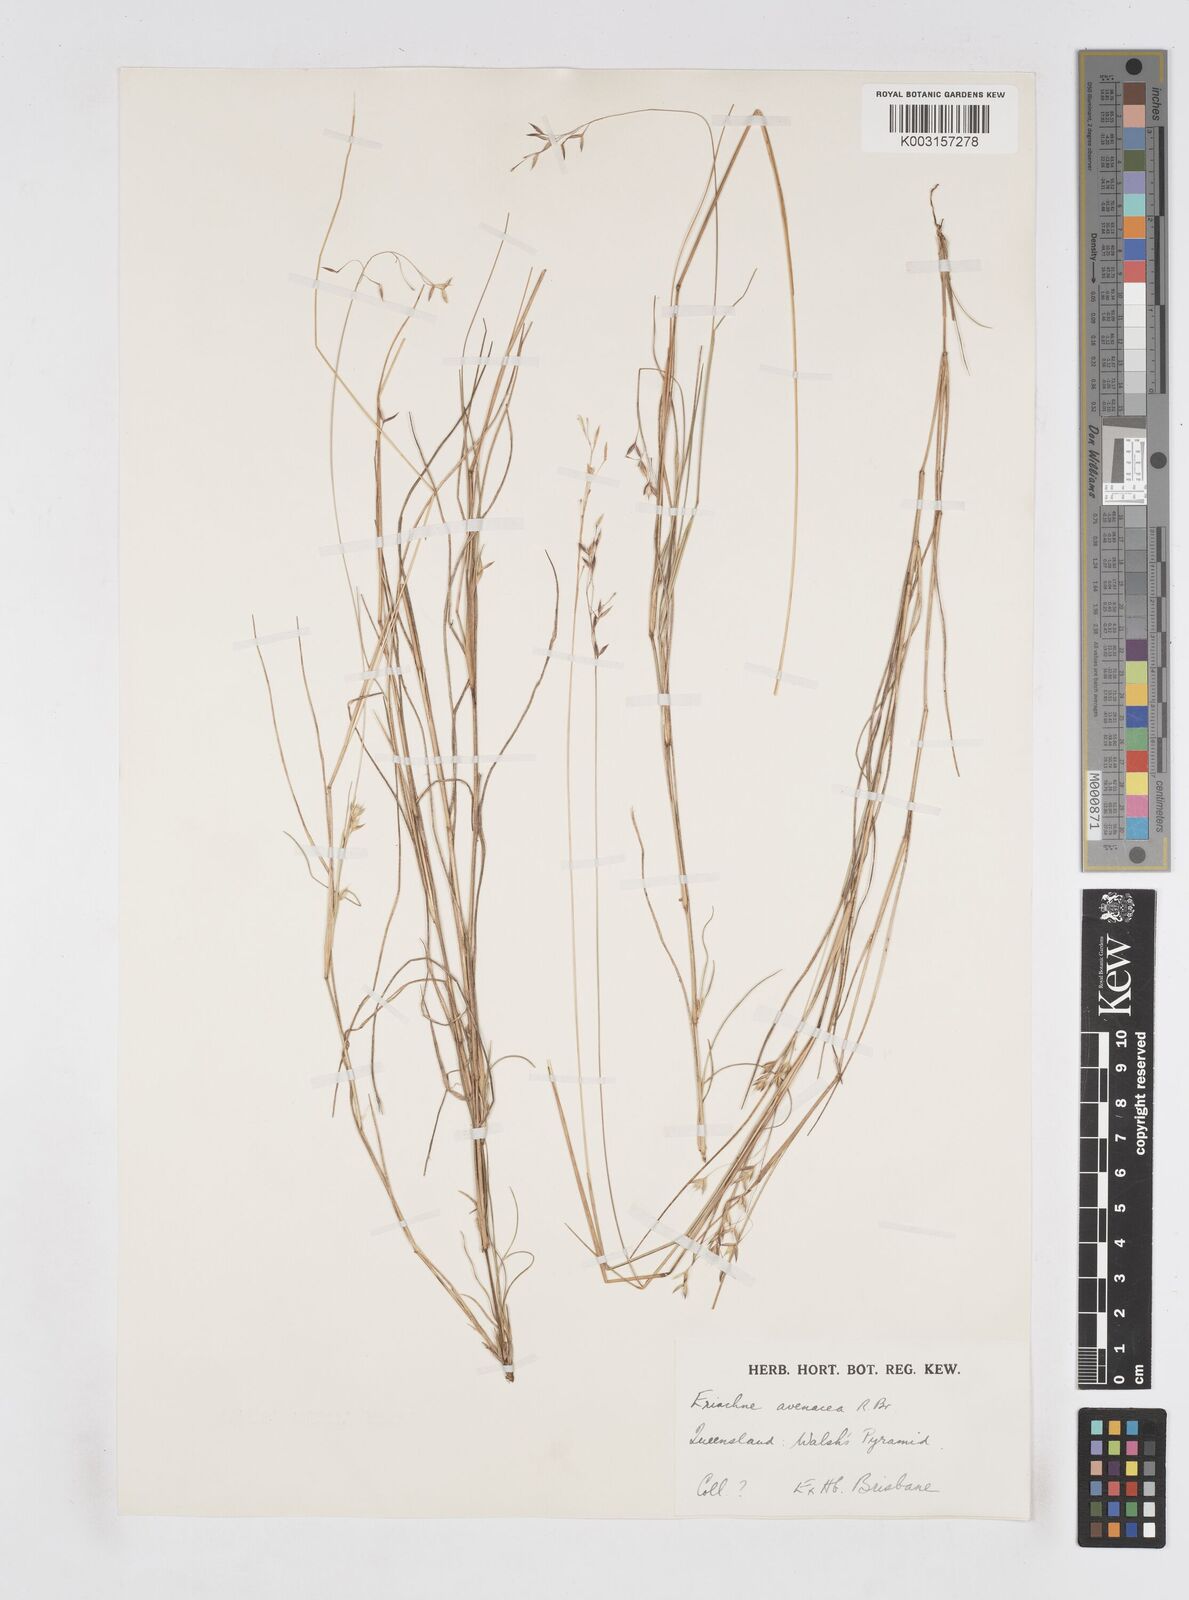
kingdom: Plantae
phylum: Tracheophyta
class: Liliopsida
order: Poales
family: Poaceae
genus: Eriachne
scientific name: Eriachne avenacea
